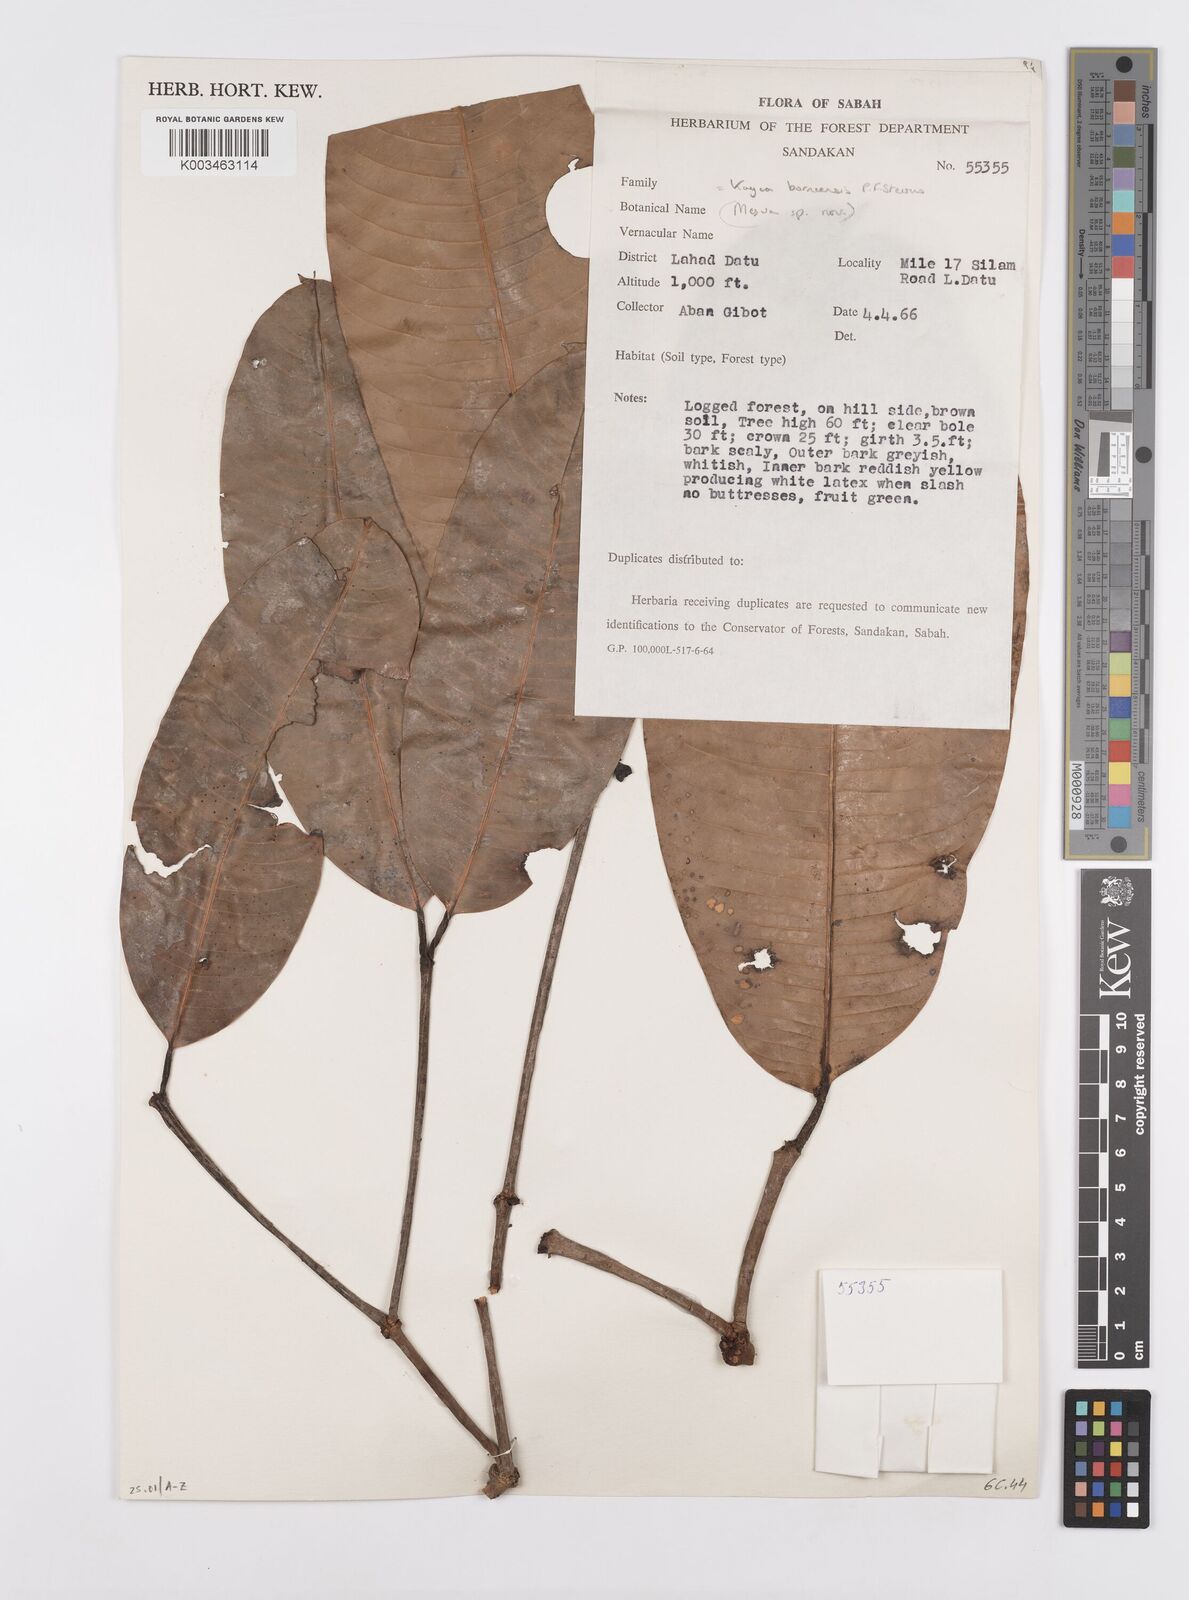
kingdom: Plantae
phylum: Tracheophyta
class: Magnoliopsida
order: Malpighiales
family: Calophyllaceae
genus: Kayea
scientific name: Kayea borneensis
